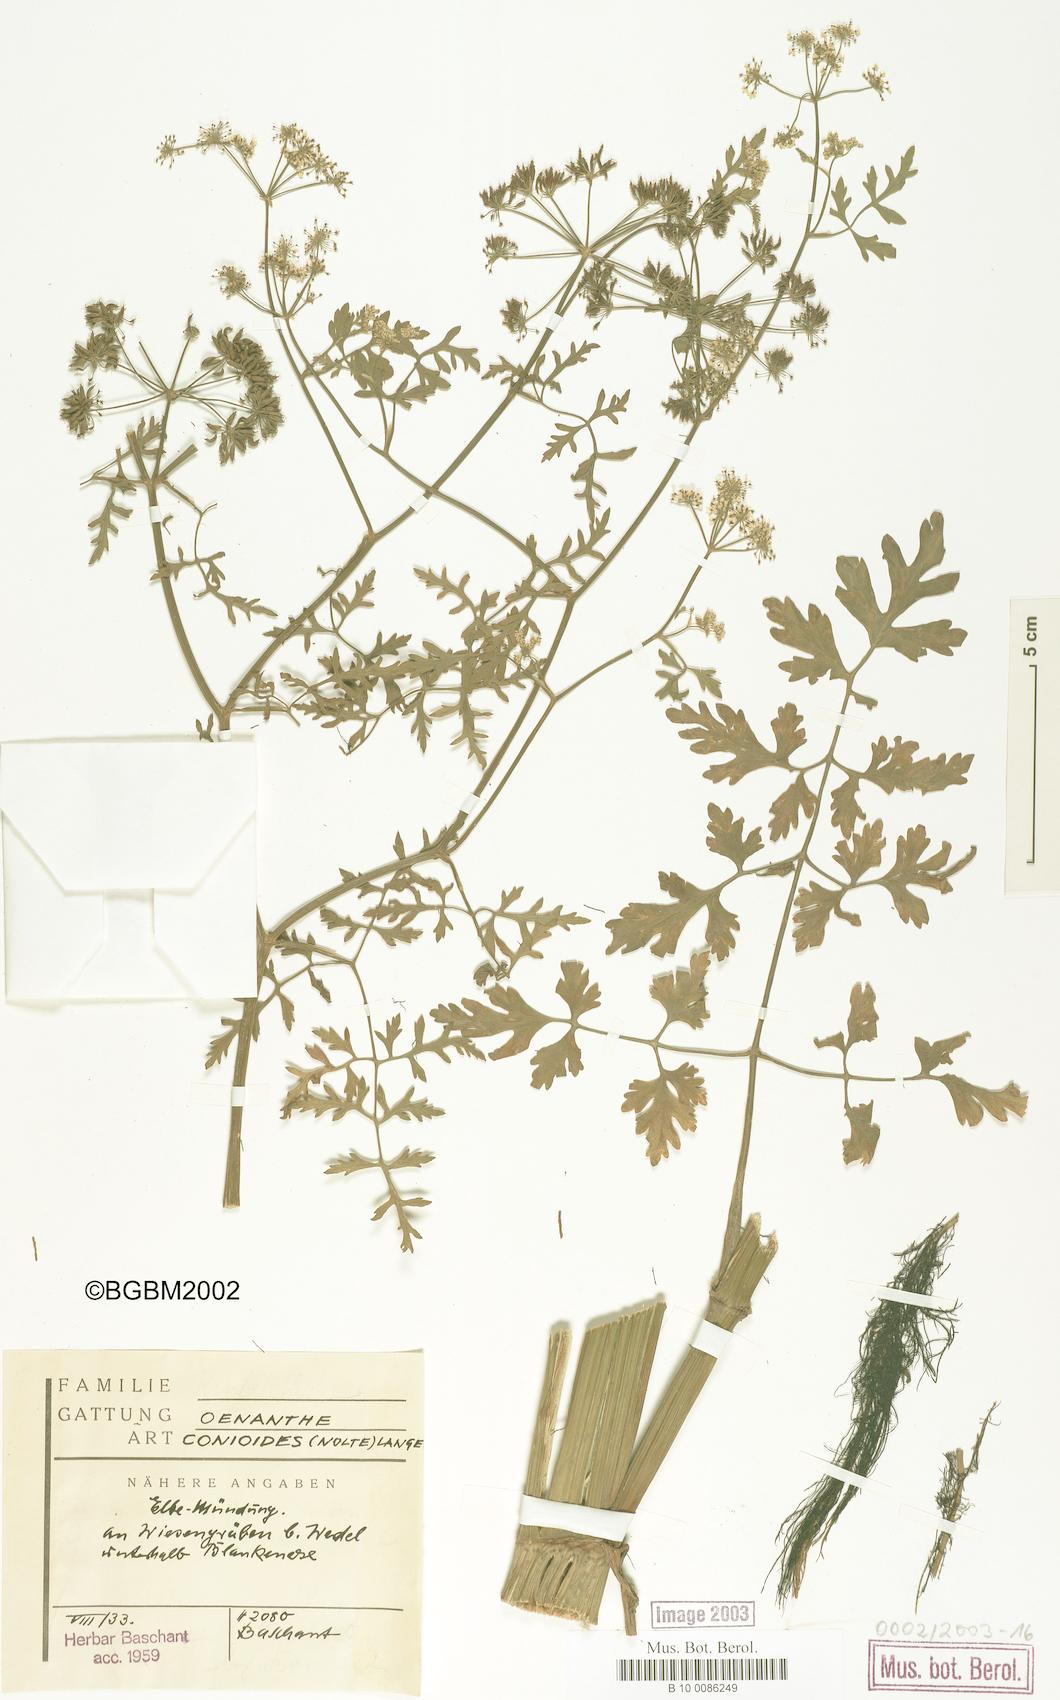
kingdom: Plantae
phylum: Tracheophyta
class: Magnoliopsida
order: Apiales
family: Apiaceae
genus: Oenanthe
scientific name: Oenanthe conioides
